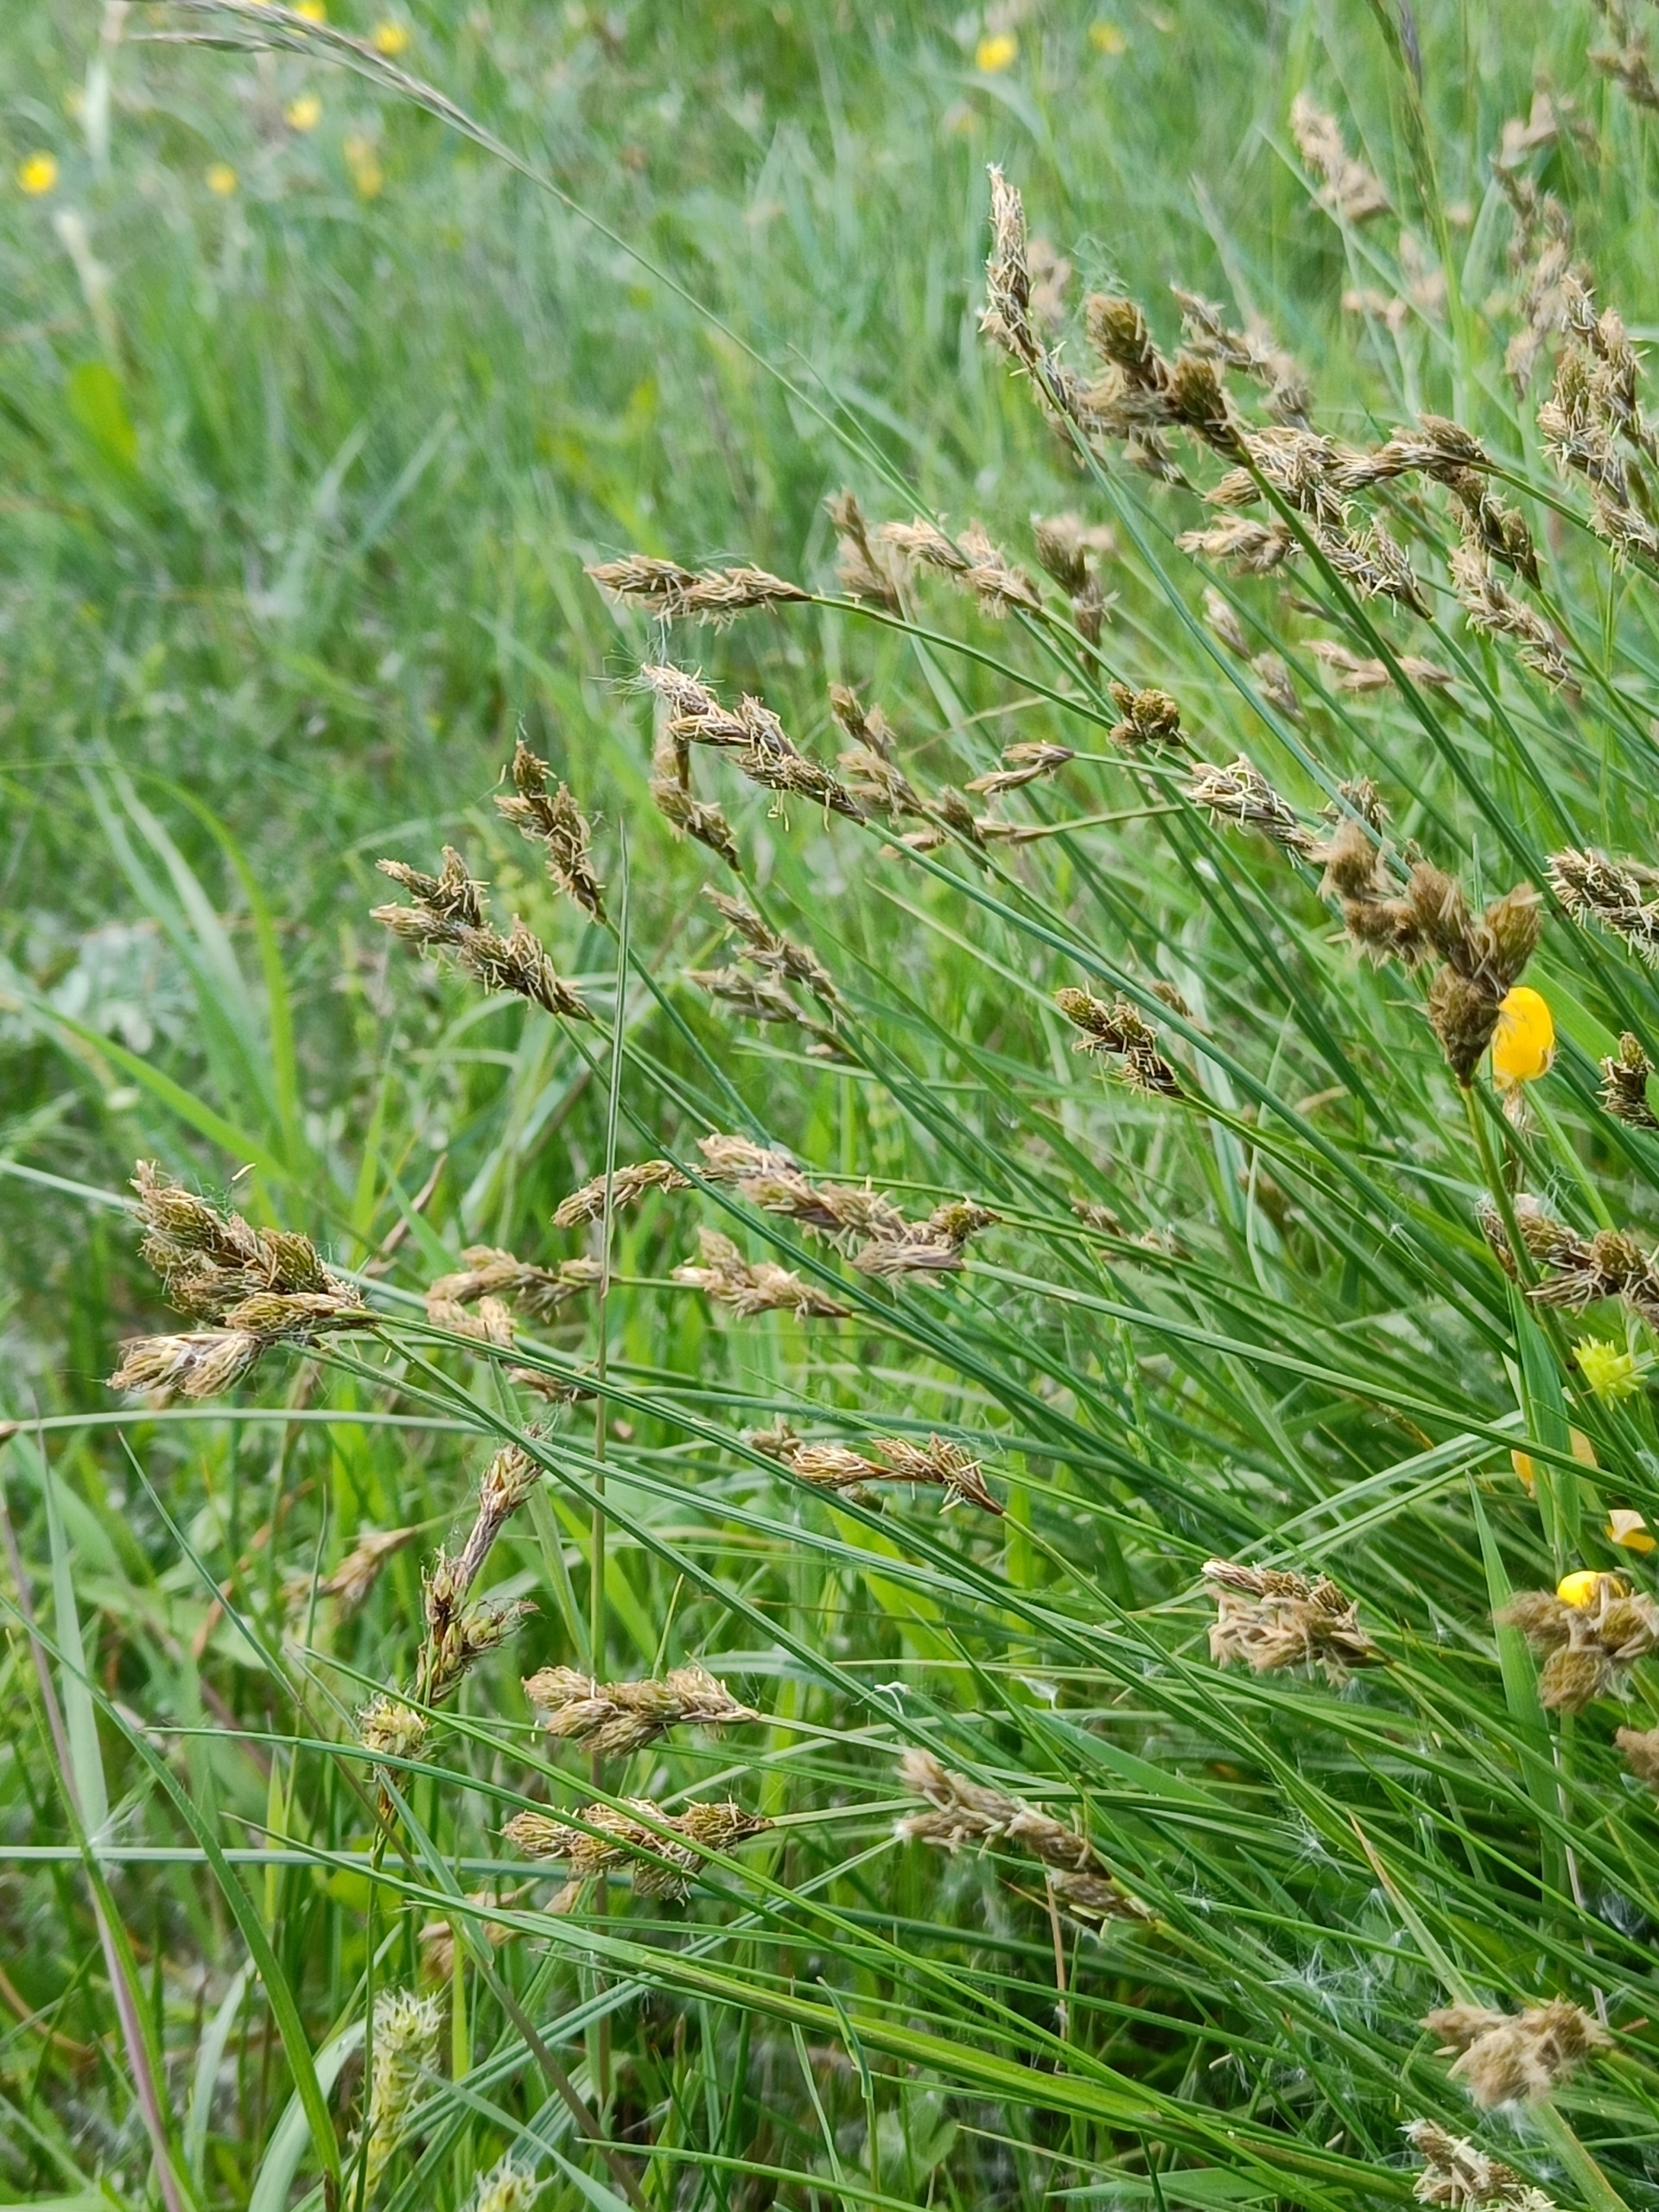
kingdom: Plantae
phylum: Tracheophyta
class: Liliopsida
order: Poales
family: Cyperaceae
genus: Carex
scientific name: Carex leporina
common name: Hare-star
